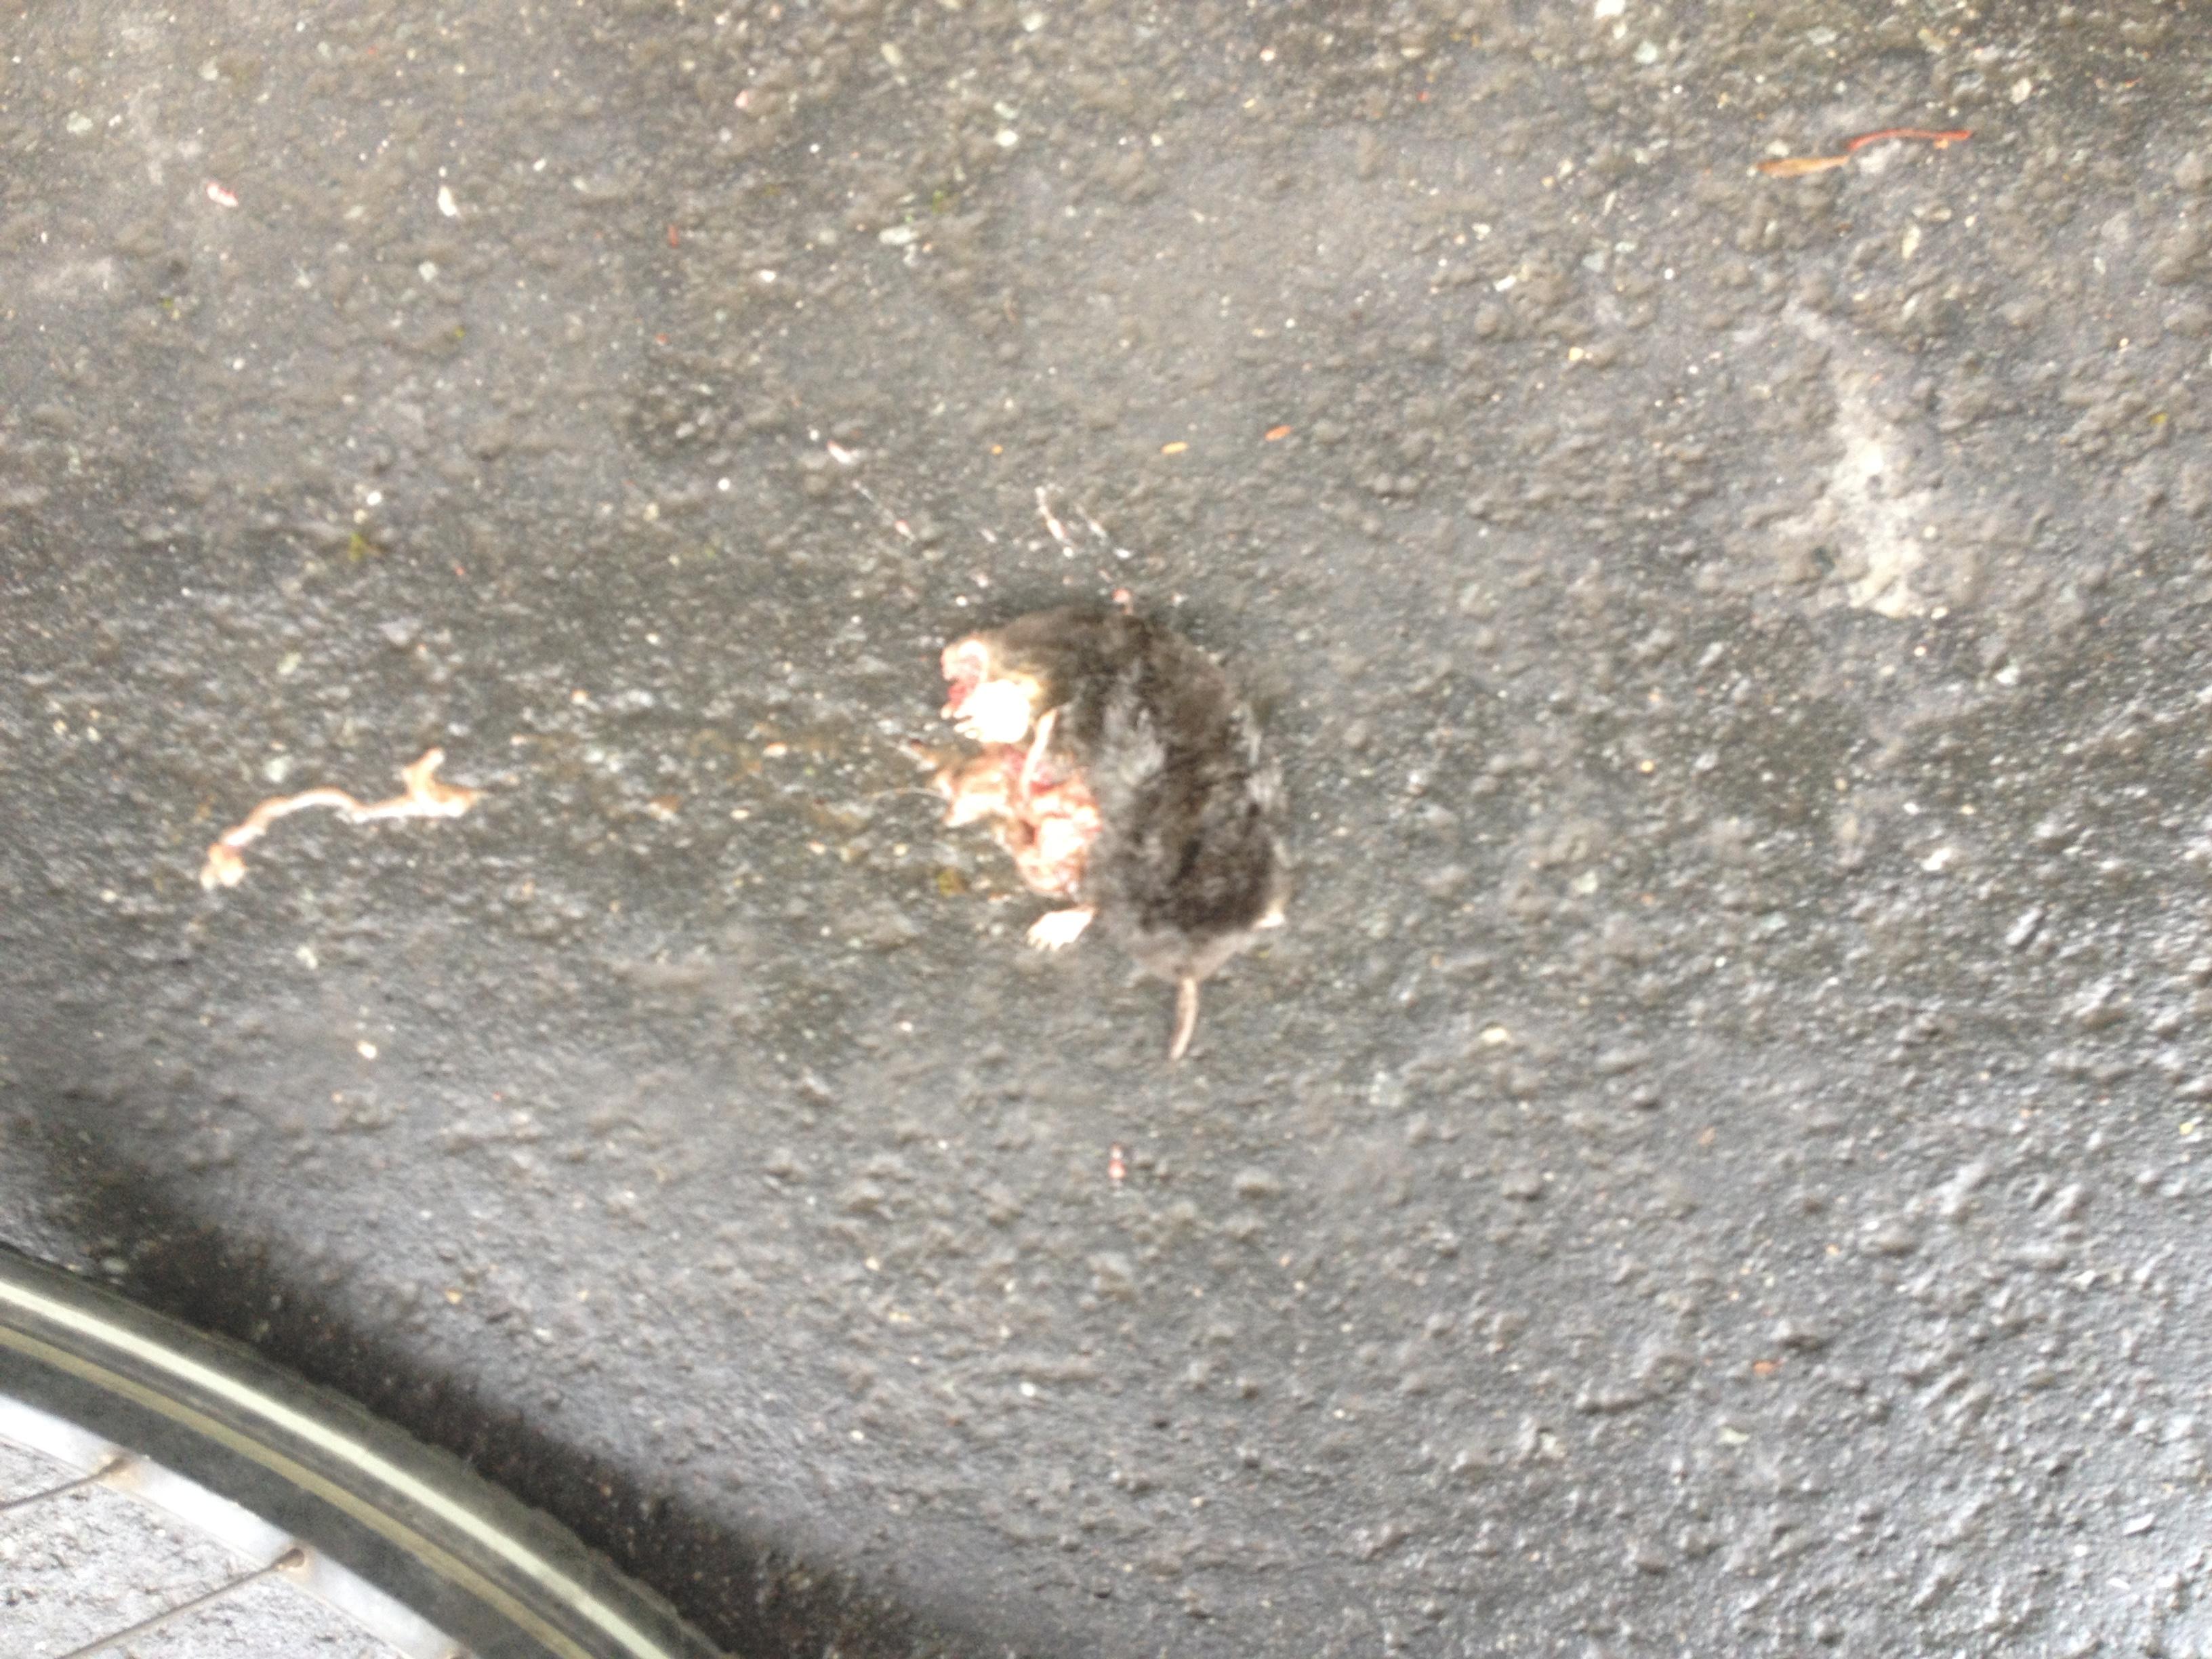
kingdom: Animalia
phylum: Chordata
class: Mammalia
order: Soricomorpha
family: Talpidae
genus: Talpa
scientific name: Talpa europaea
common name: European mole
